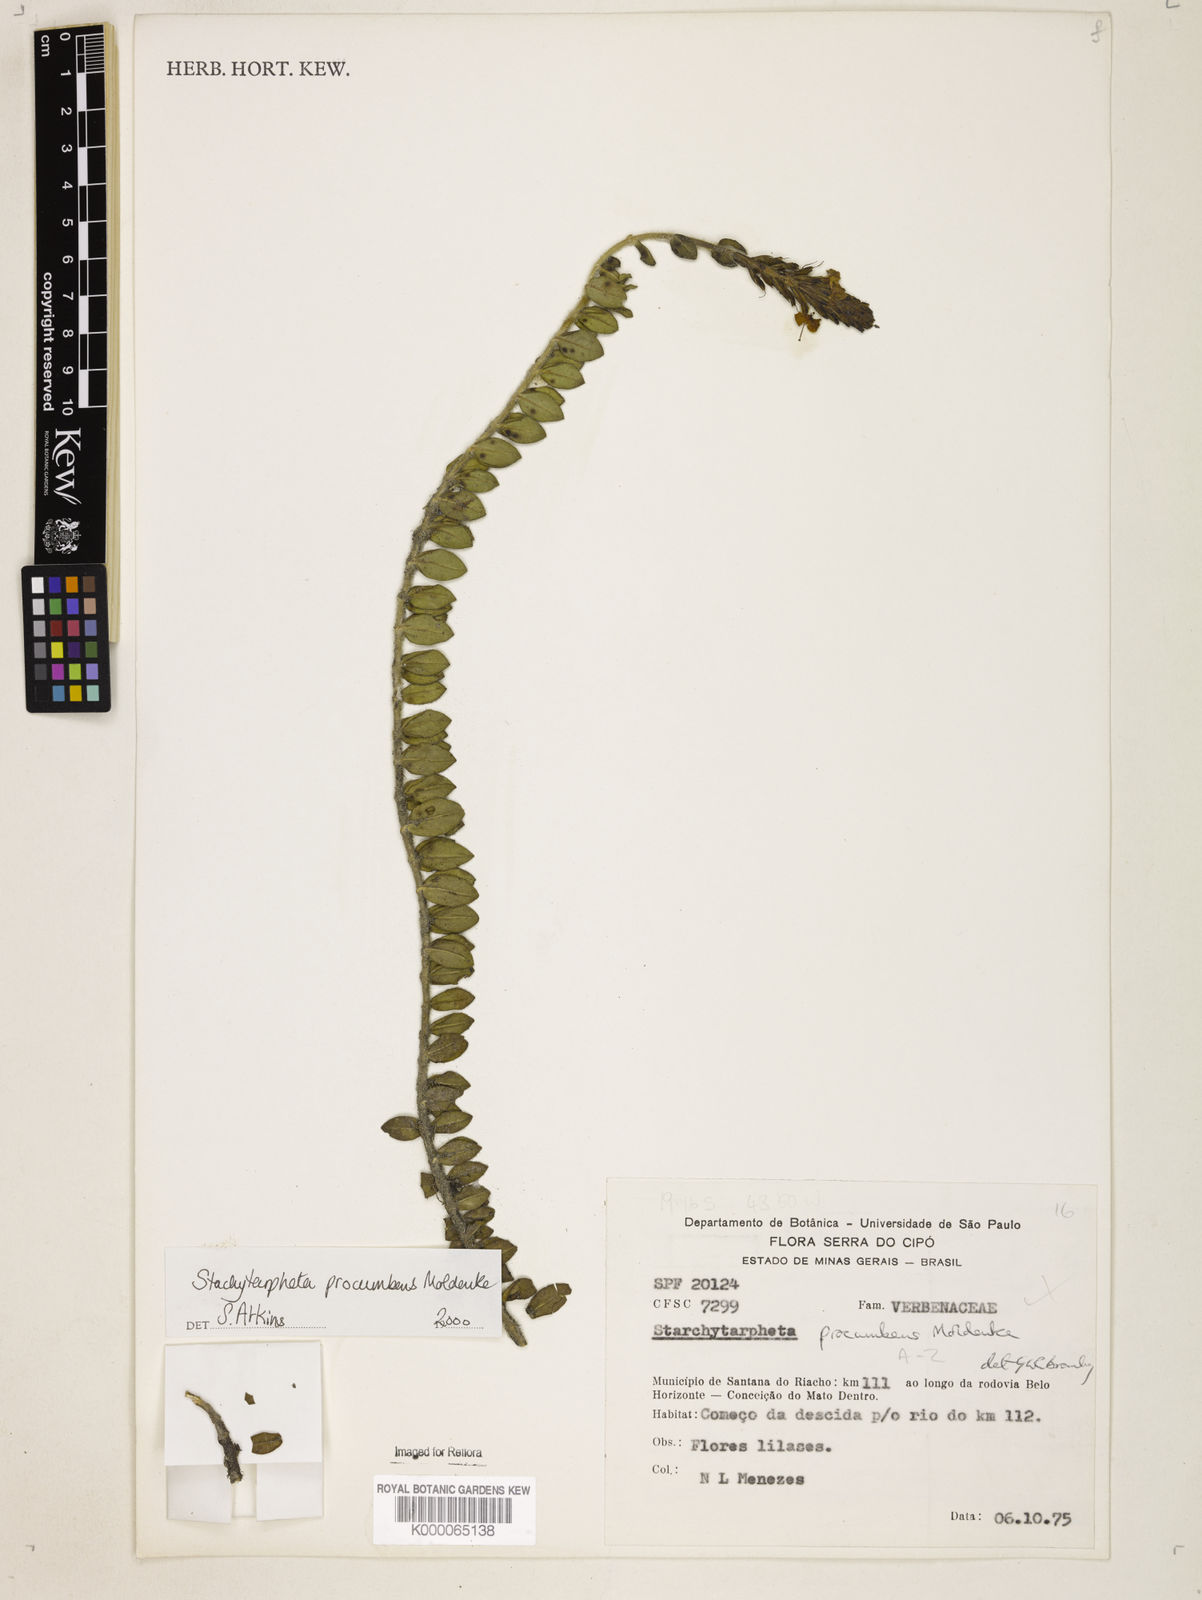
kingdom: Plantae
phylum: Tracheophyta
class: Magnoliopsida
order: Lamiales
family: Verbenaceae
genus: Stachytarpheta
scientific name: Stachytarpheta procumbens
